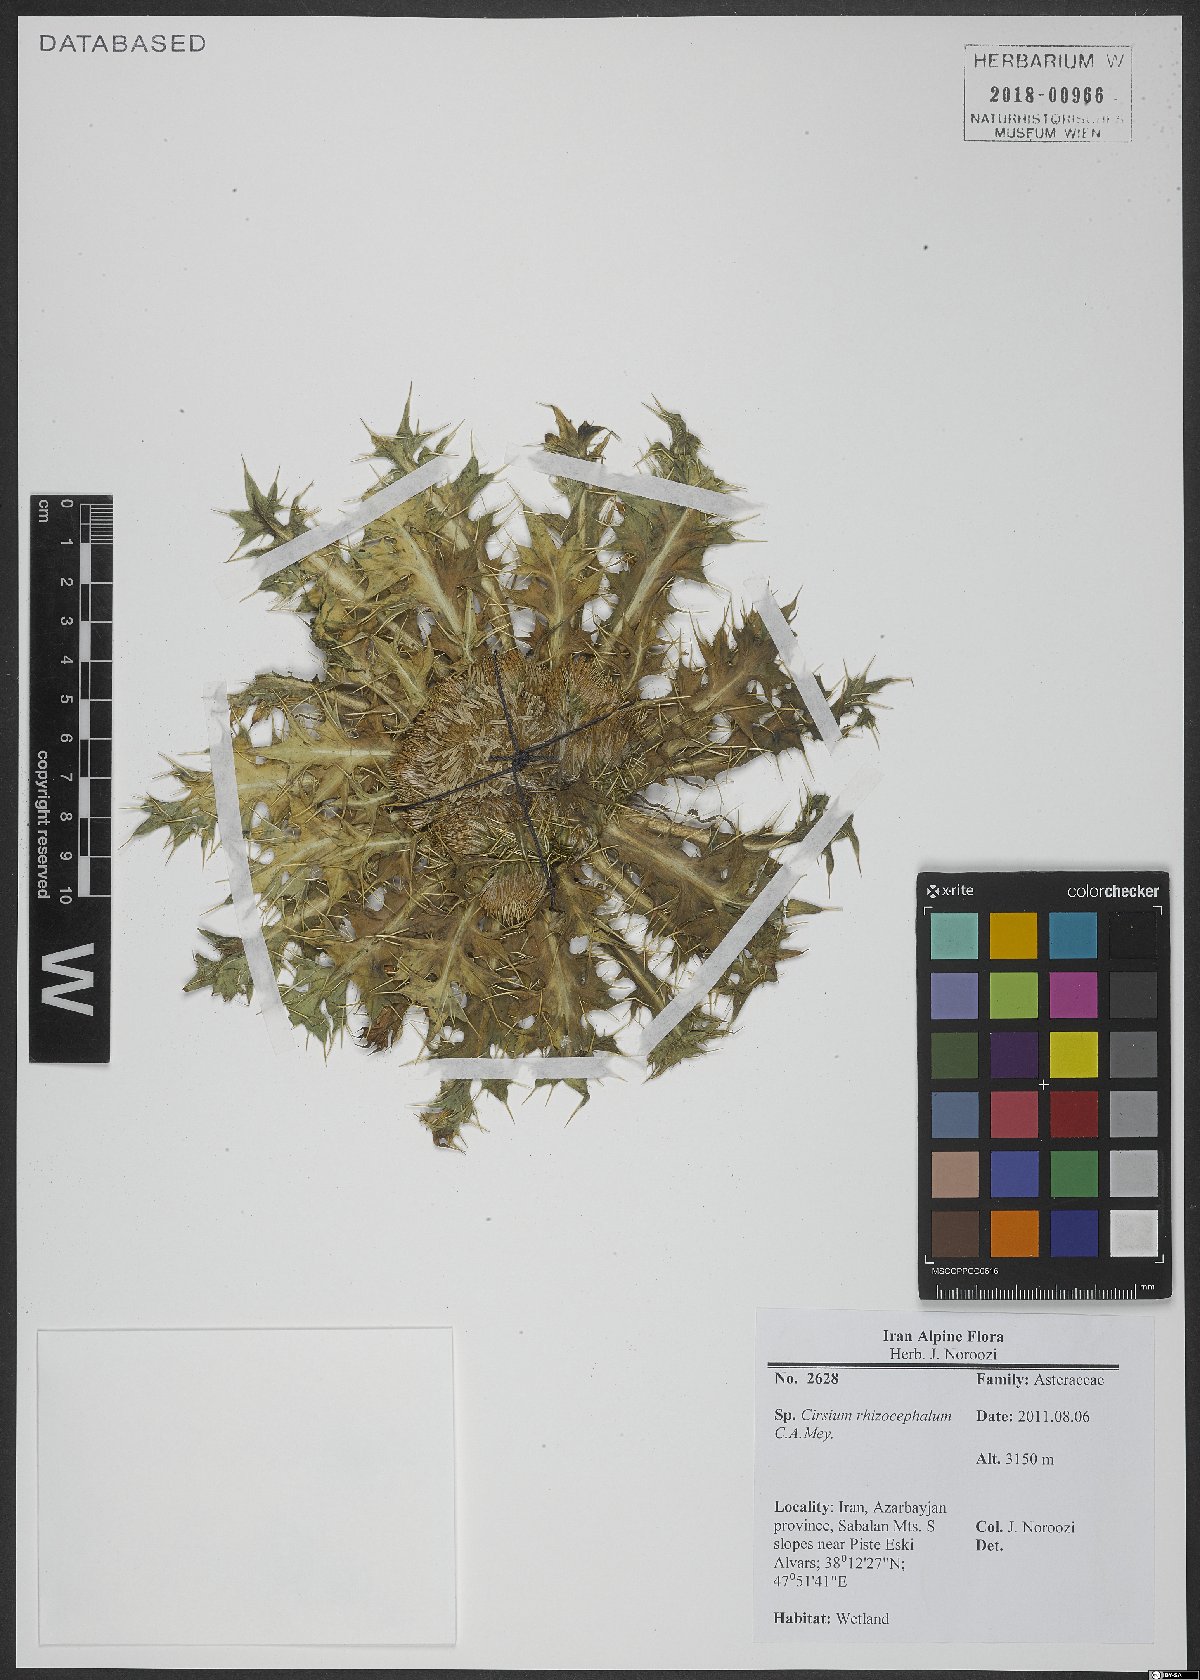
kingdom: Plantae
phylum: Tracheophyta
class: Magnoliopsida
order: Asterales
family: Asteraceae
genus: Cirsium
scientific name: Cirsium rhizocephalum
